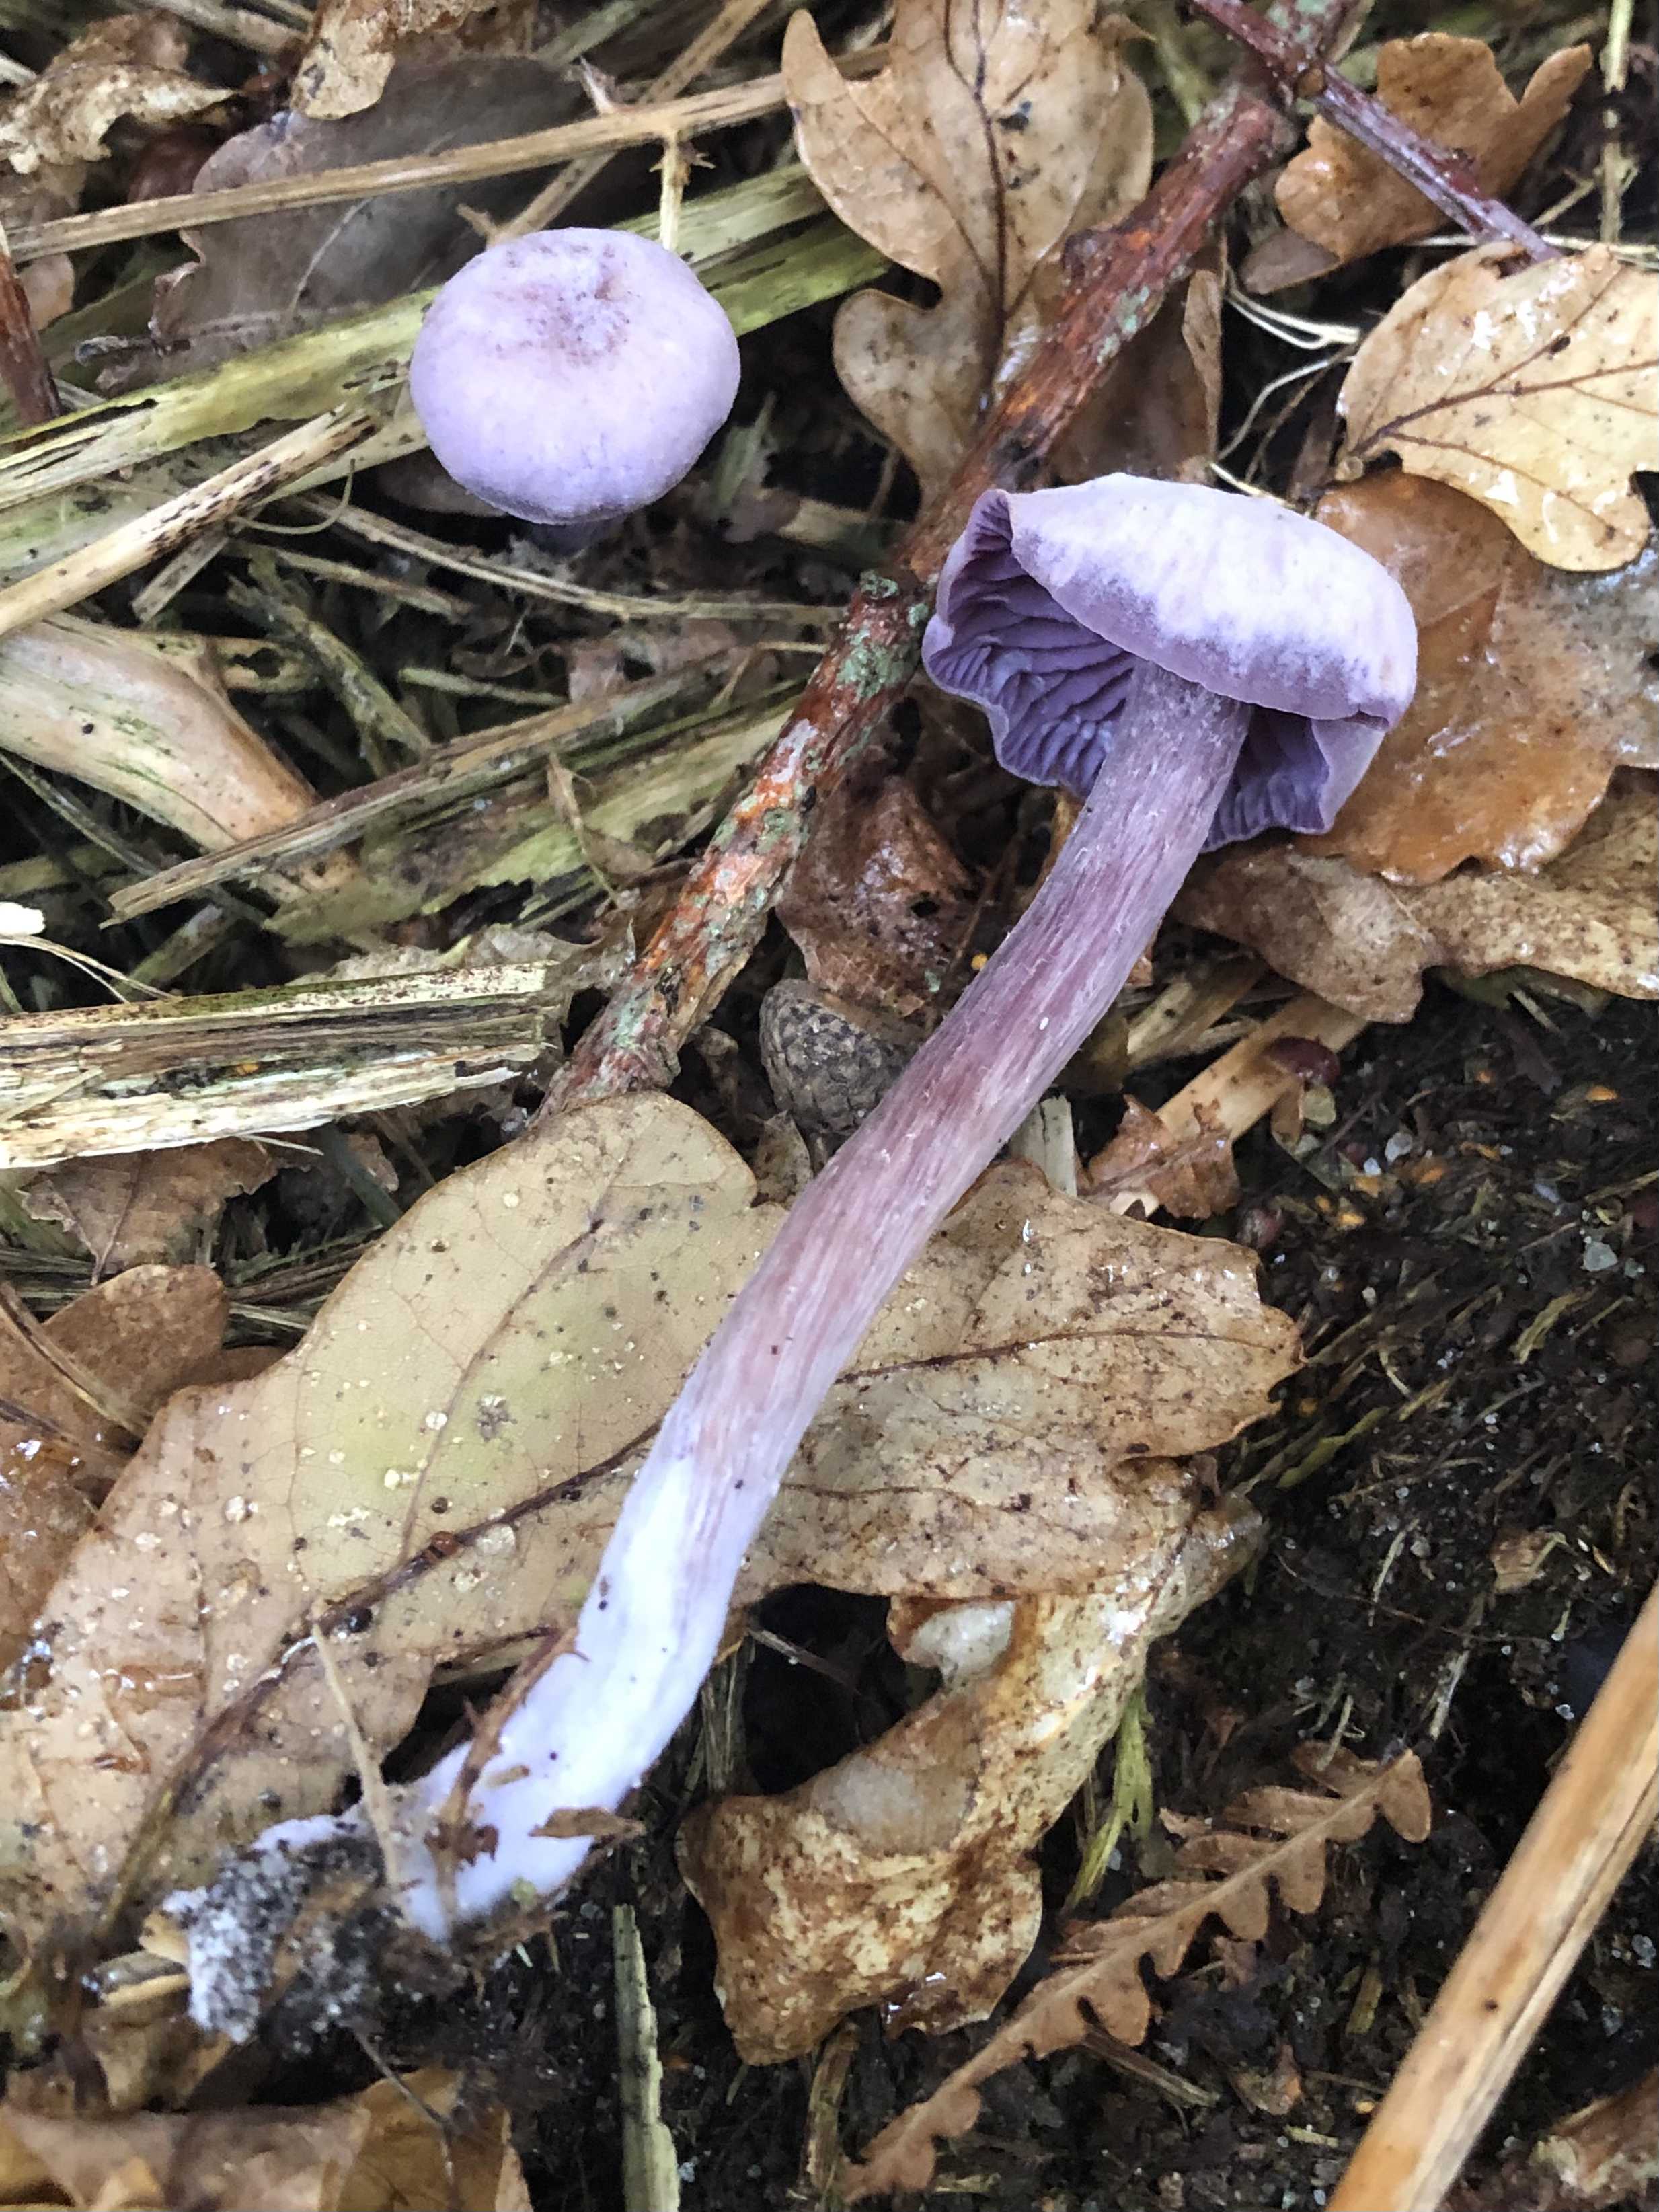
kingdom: Fungi
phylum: Basidiomycota
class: Agaricomycetes
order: Agaricales
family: Hydnangiaceae
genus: Laccaria
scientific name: Laccaria amethystina
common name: violet ametysthat
